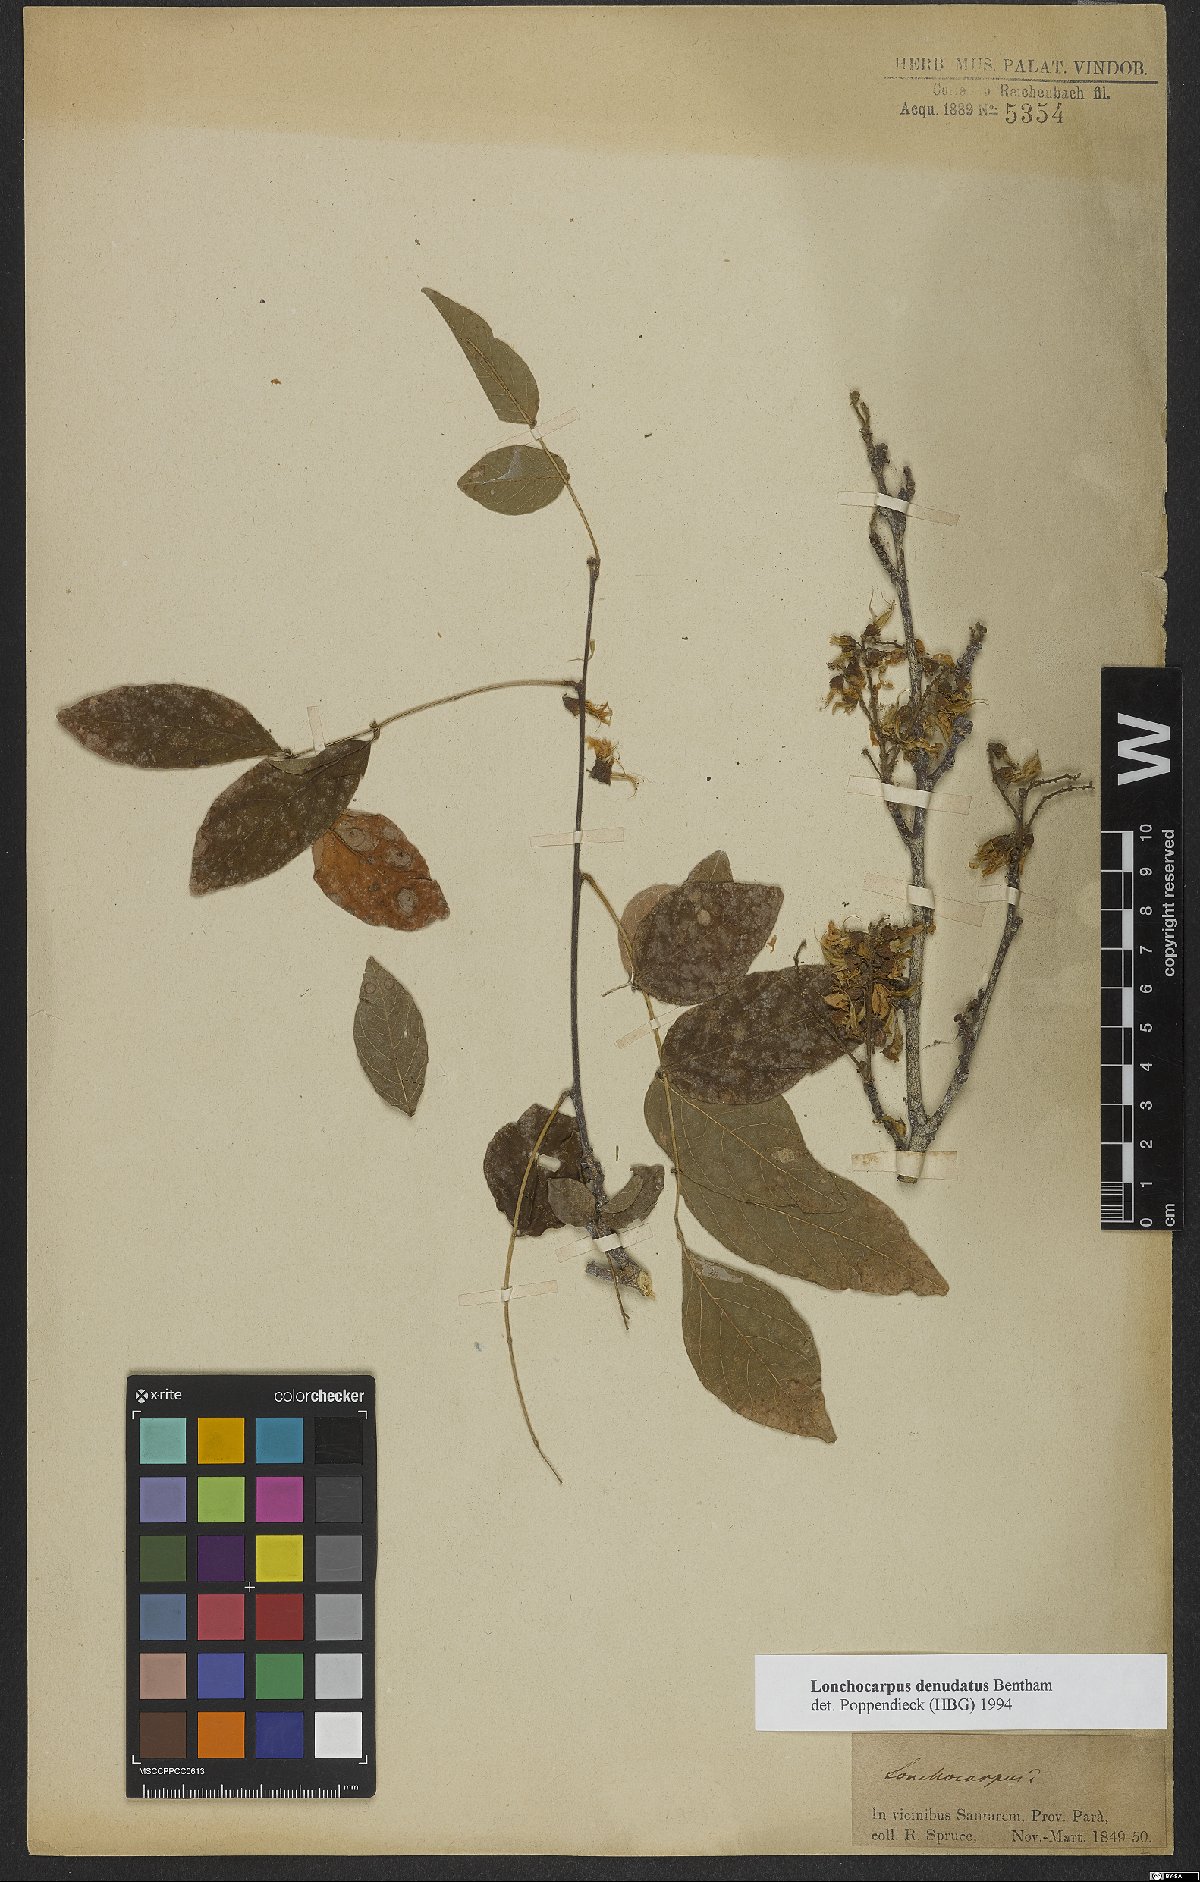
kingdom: Plantae
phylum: Tracheophyta
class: Magnoliopsida
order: Fabales
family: Fabaceae
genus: Muellera
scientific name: Muellera denudata
